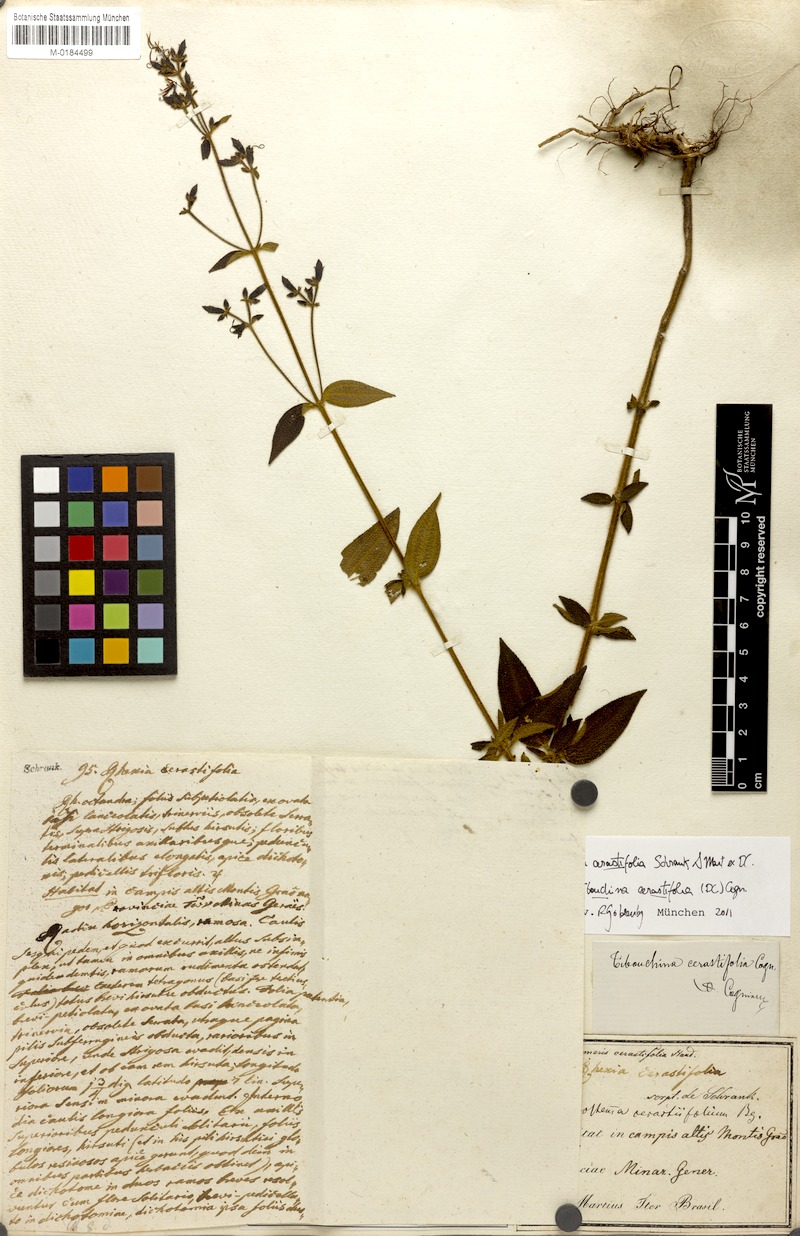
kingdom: Plantae
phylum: Tracheophyta
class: Magnoliopsida
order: Myrtales
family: Melastomataceae
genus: Chaetogastra
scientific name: Chaetogastra cerastifolia
